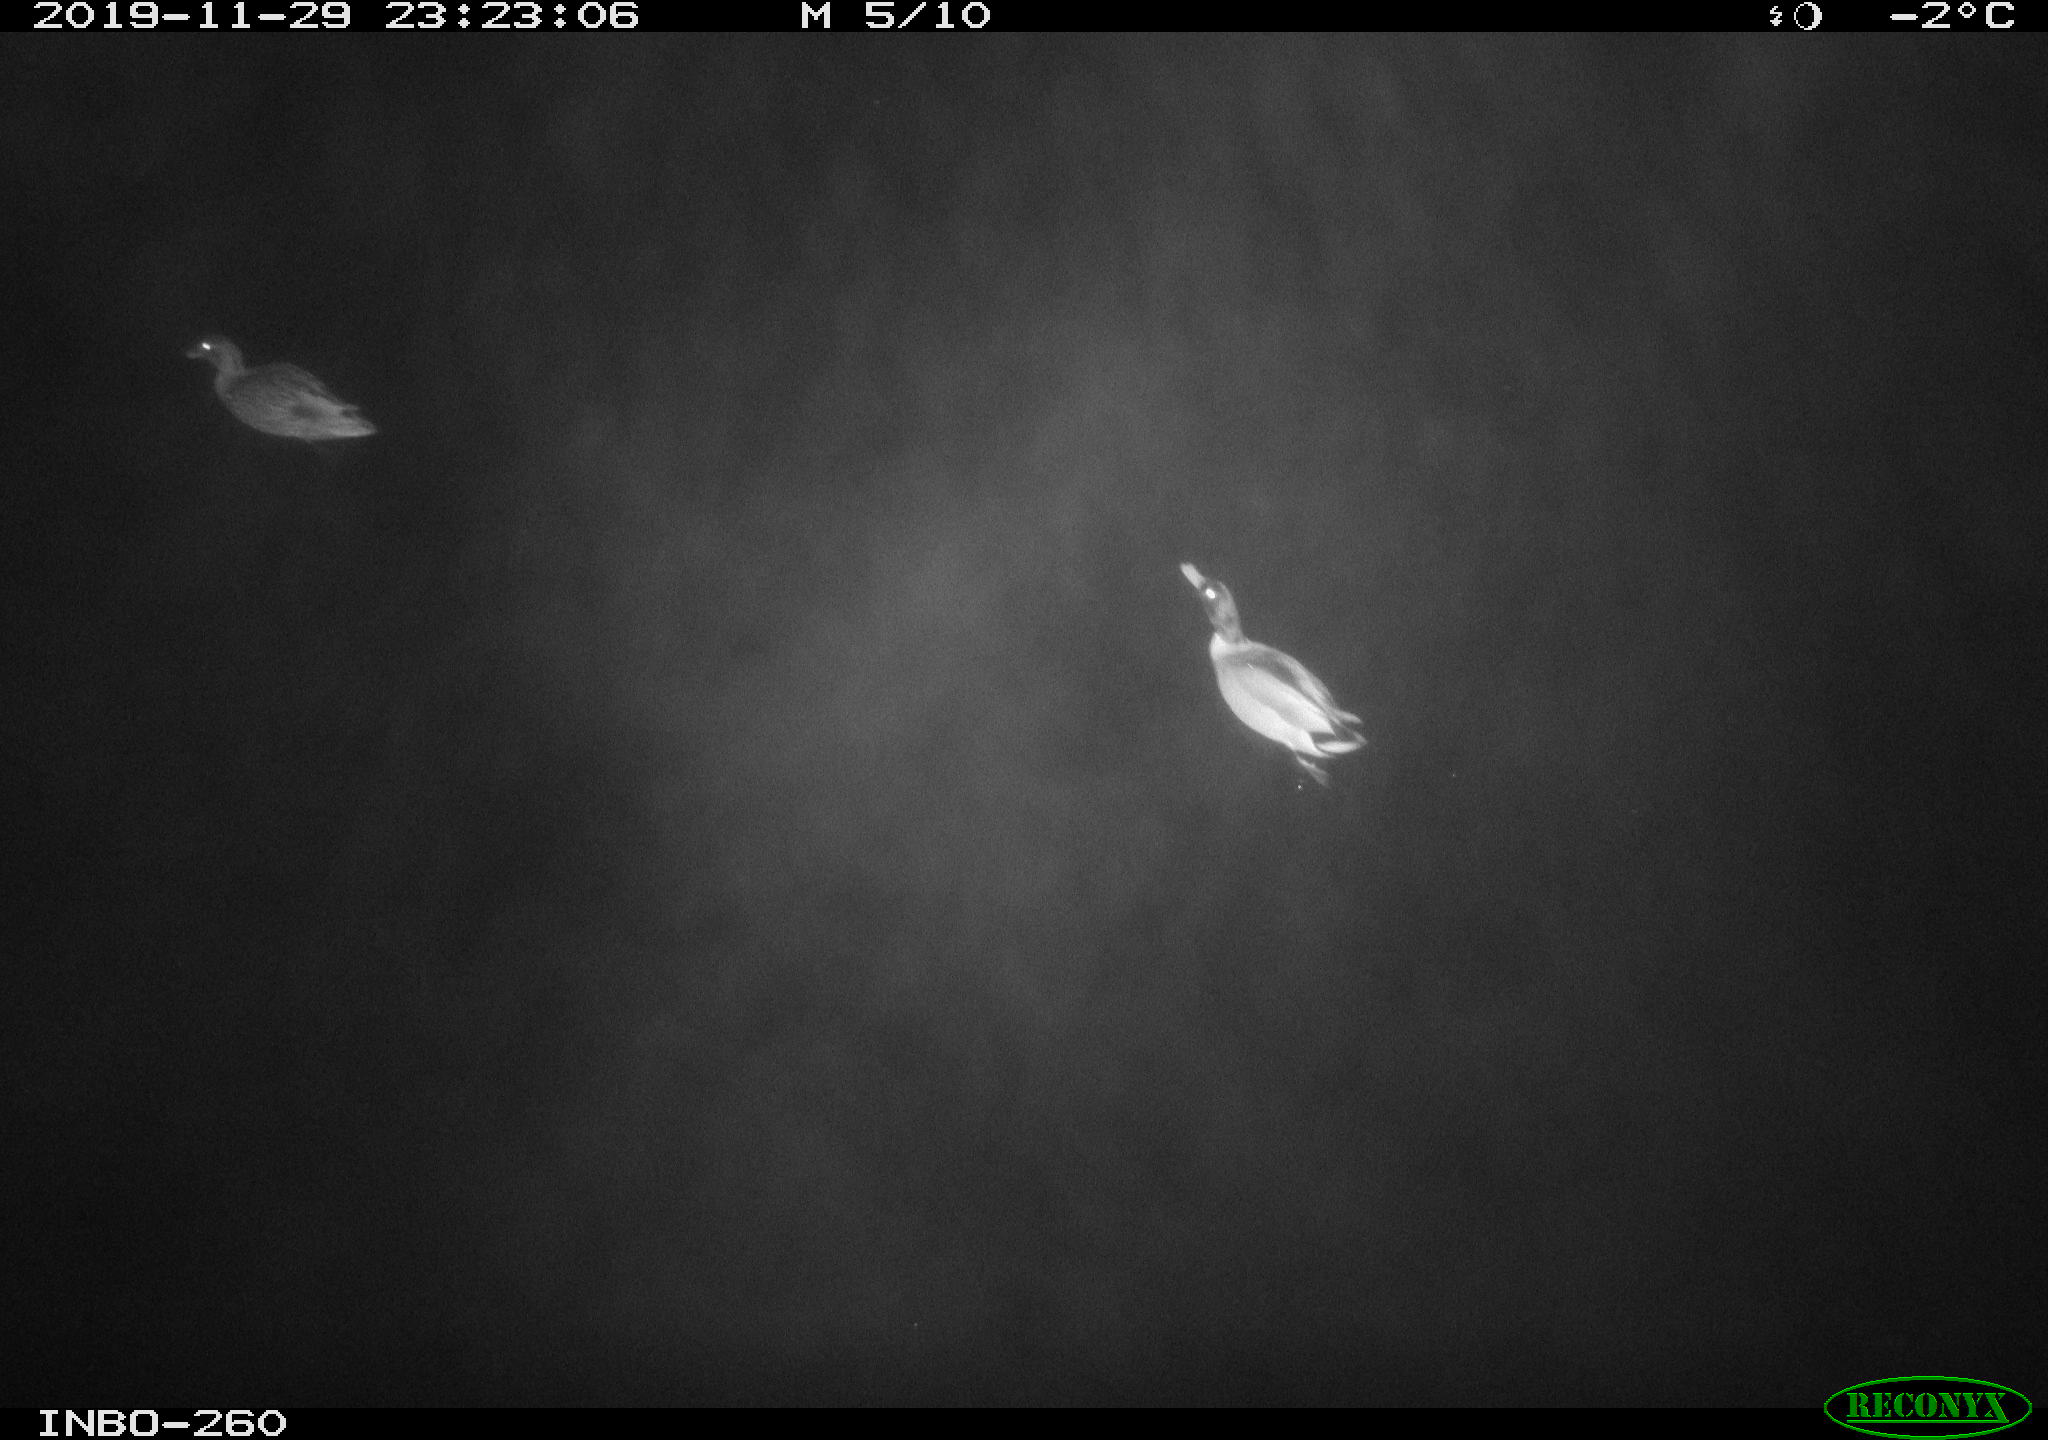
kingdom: Animalia
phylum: Chordata
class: Aves
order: Anseriformes
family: Anatidae
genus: Anas
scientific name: Anas platyrhynchos
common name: Mallard
